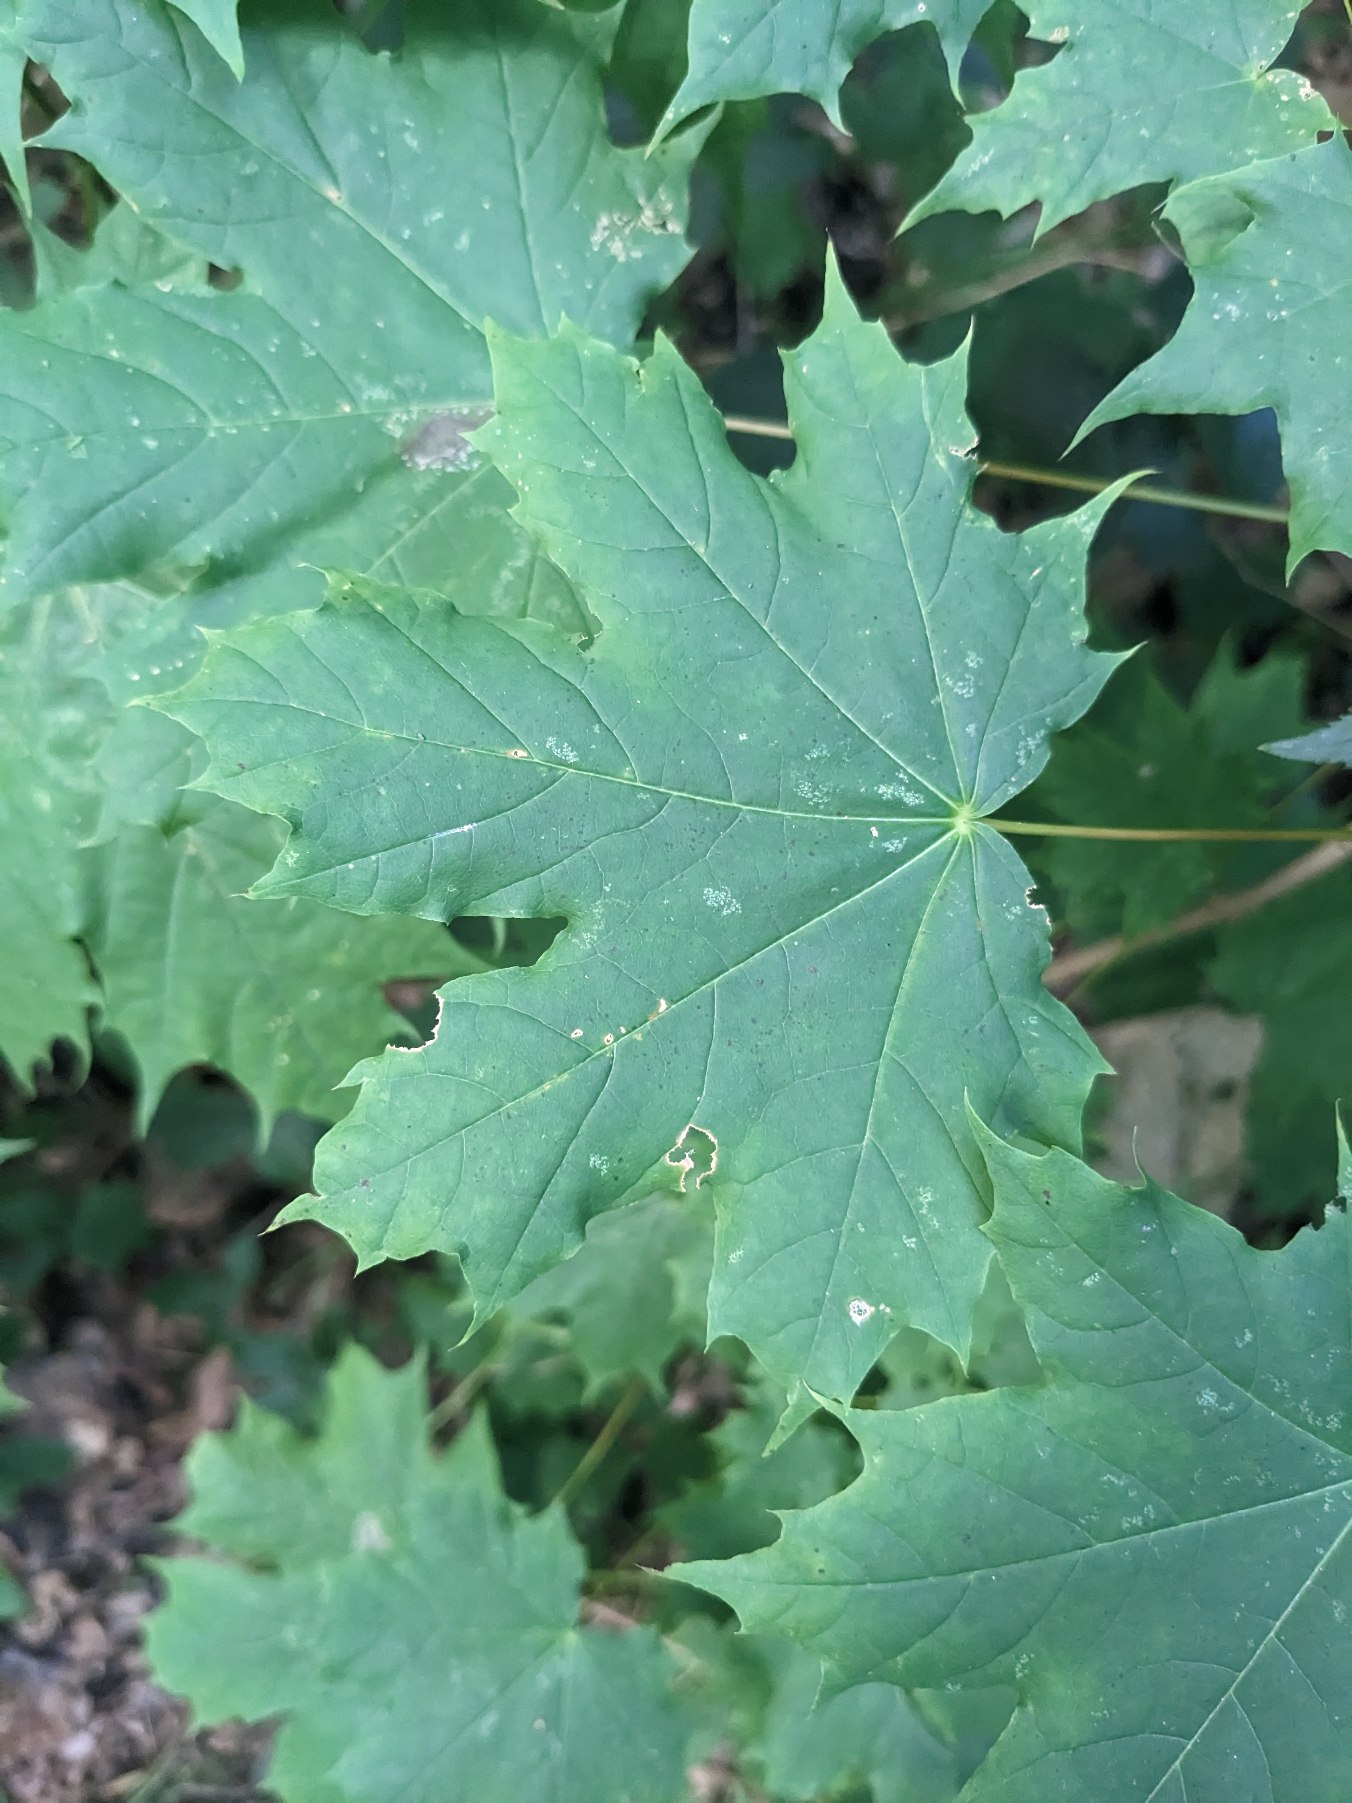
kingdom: Plantae
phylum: Tracheophyta
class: Magnoliopsida
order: Sapindales
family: Sapindaceae
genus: Acer
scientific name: Acer platanoides
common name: Spids-løn
